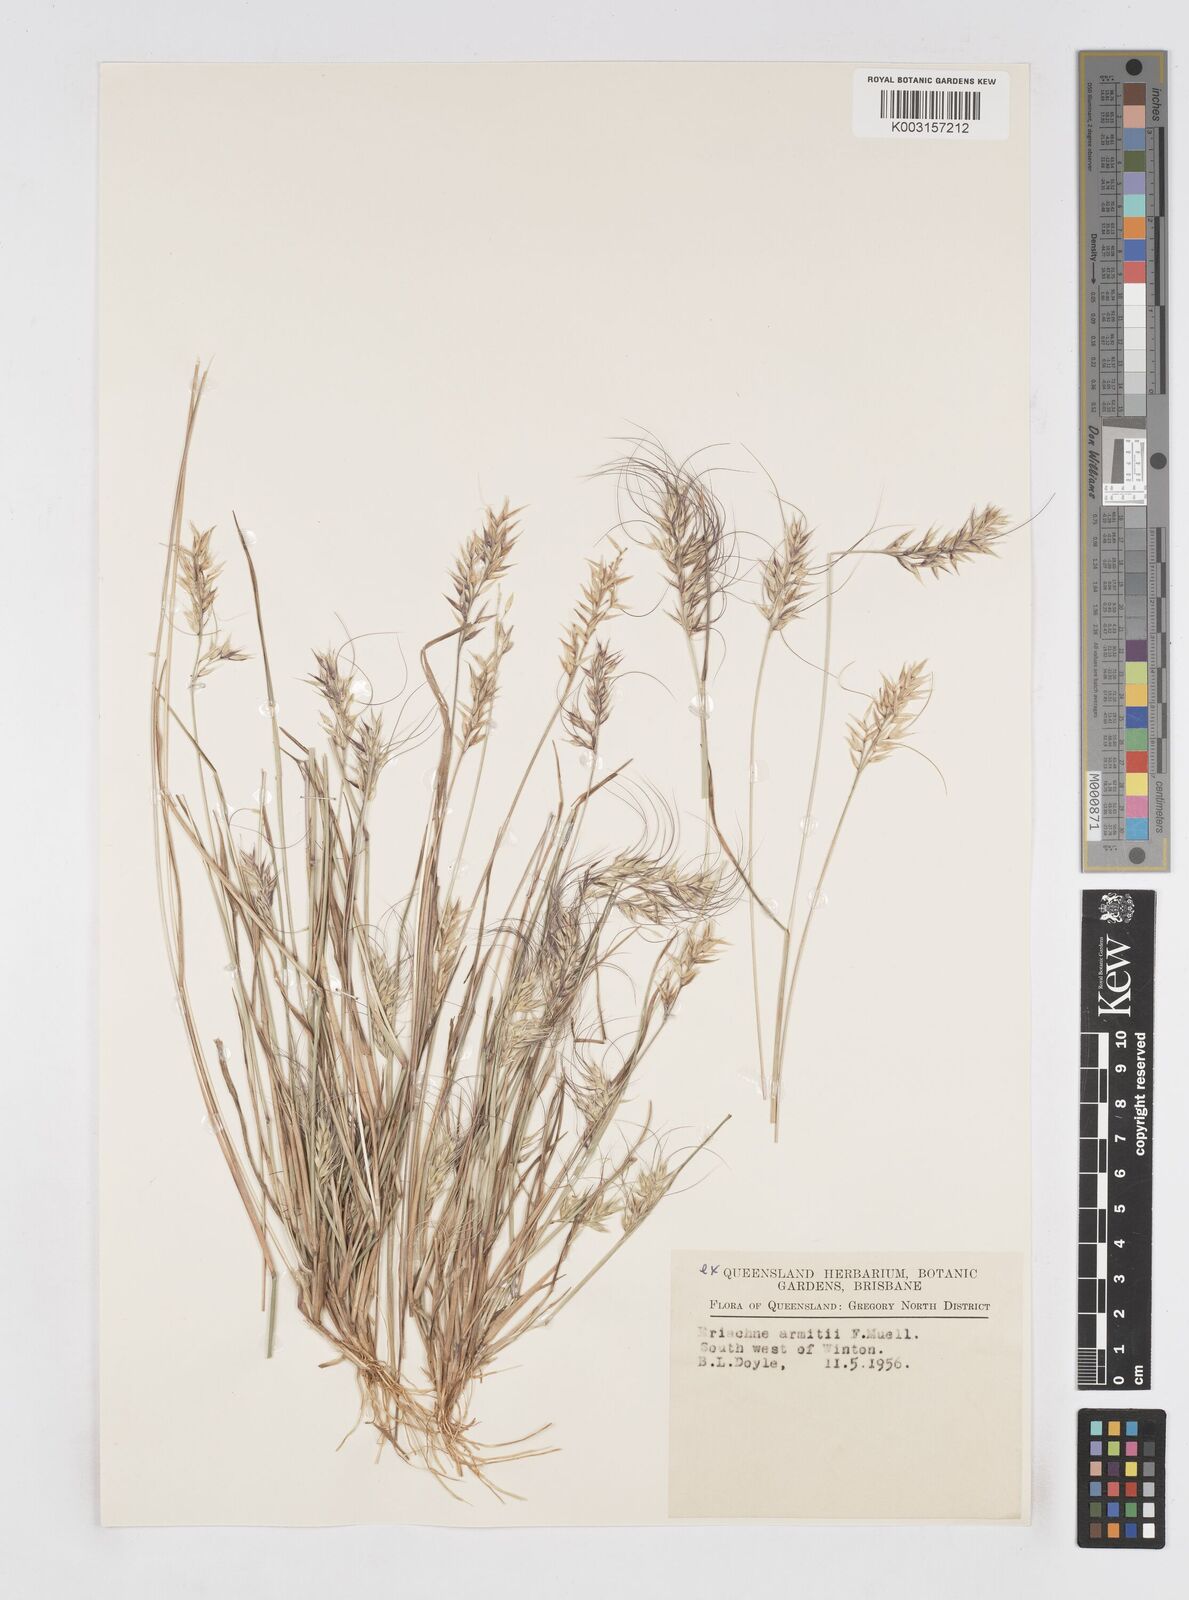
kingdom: Plantae
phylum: Tracheophyta
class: Liliopsida
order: Poales
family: Poaceae
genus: Eriachne
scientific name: Eriachne armitii
